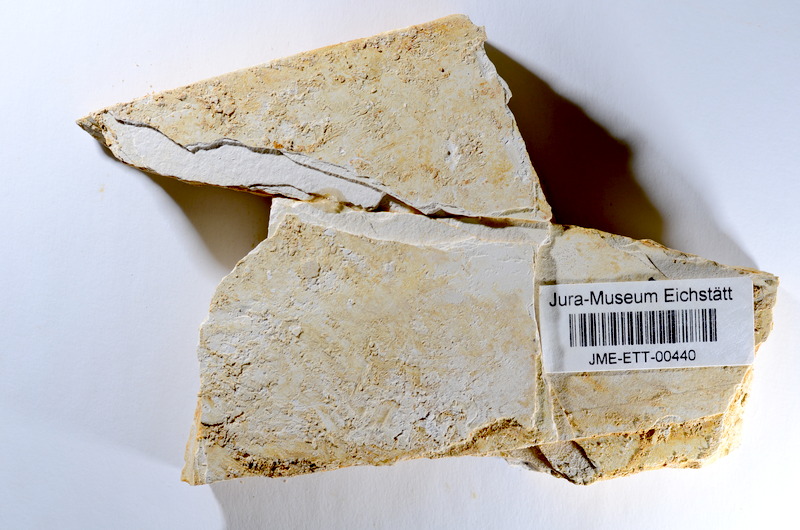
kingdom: Animalia
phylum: Chordata
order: Salmoniformes
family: Orthogonikleithridae
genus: Orthogonikleithrus
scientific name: Orthogonikleithrus hoelli
